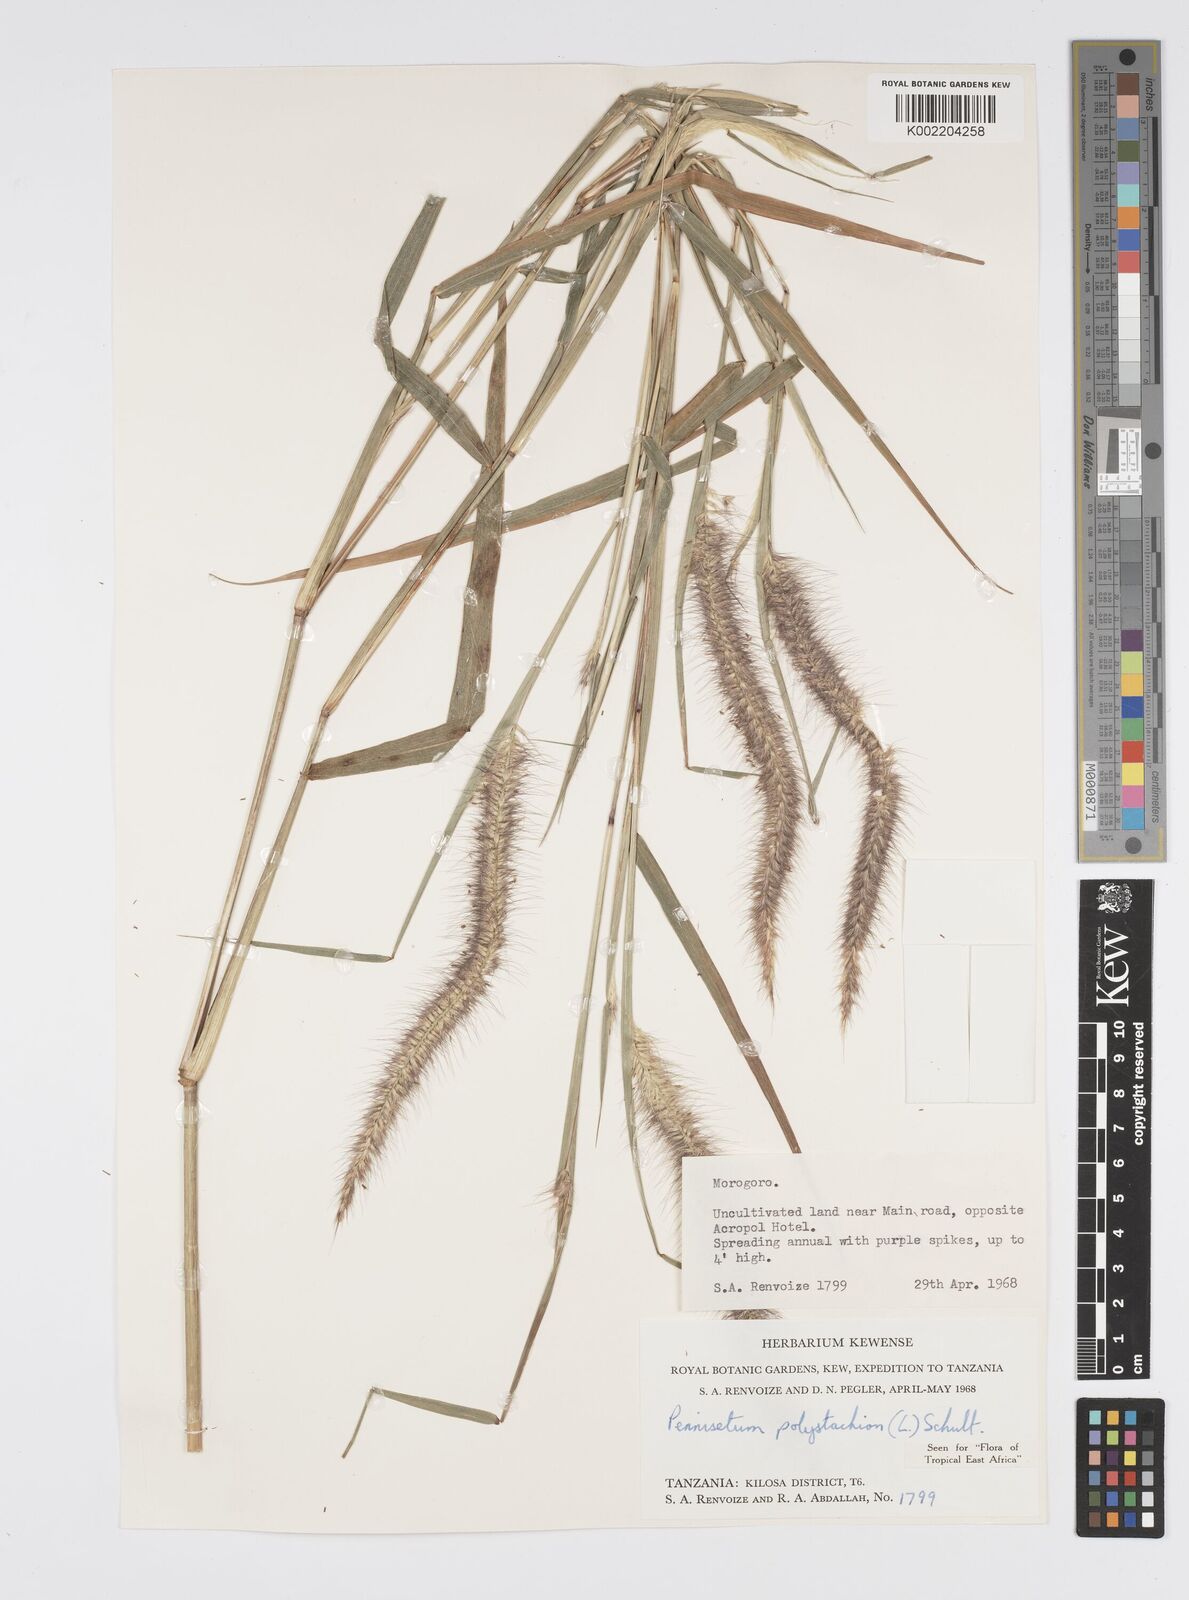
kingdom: Plantae
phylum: Tracheophyta
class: Liliopsida
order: Poales
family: Poaceae
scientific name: Poaceae
